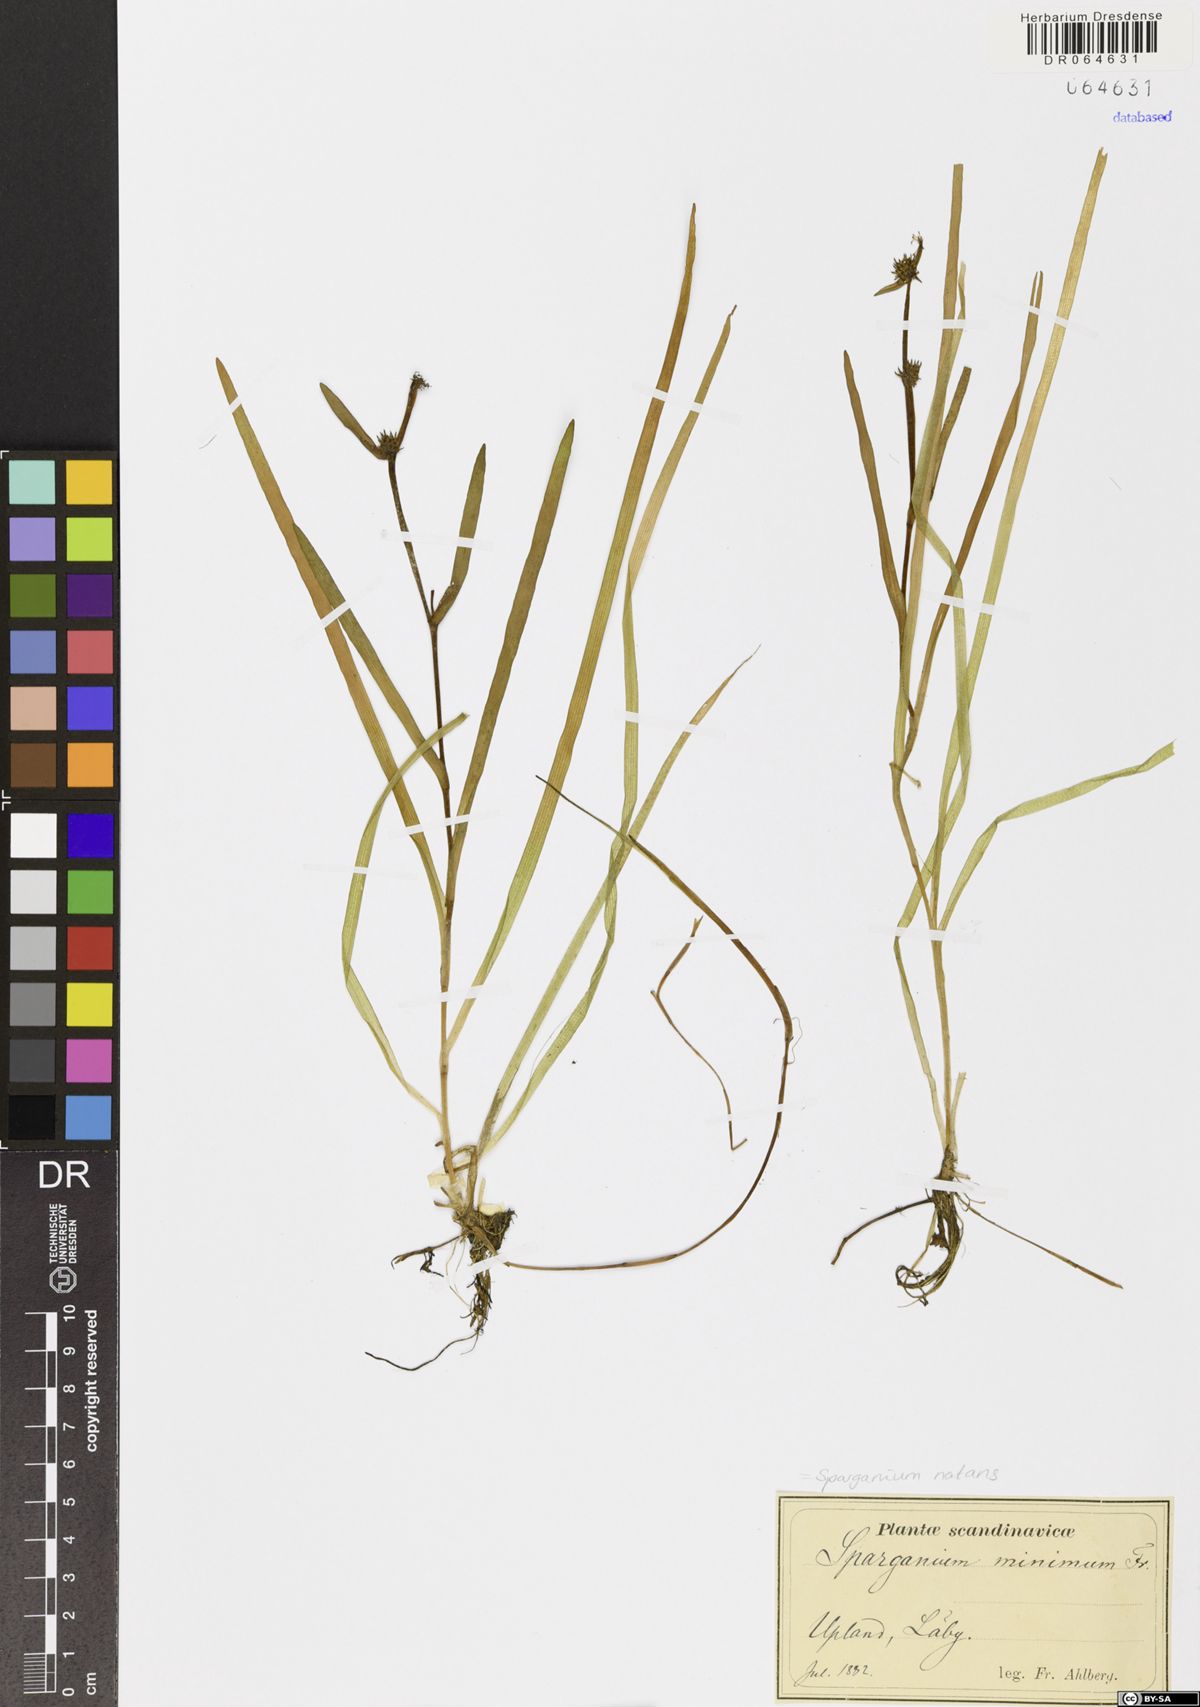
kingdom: Plantae
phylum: Tracheophyta
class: Liliopsida
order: Poales
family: Typhaceae
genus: Sparganium
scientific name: Sparganium natans
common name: Least bur-reed
